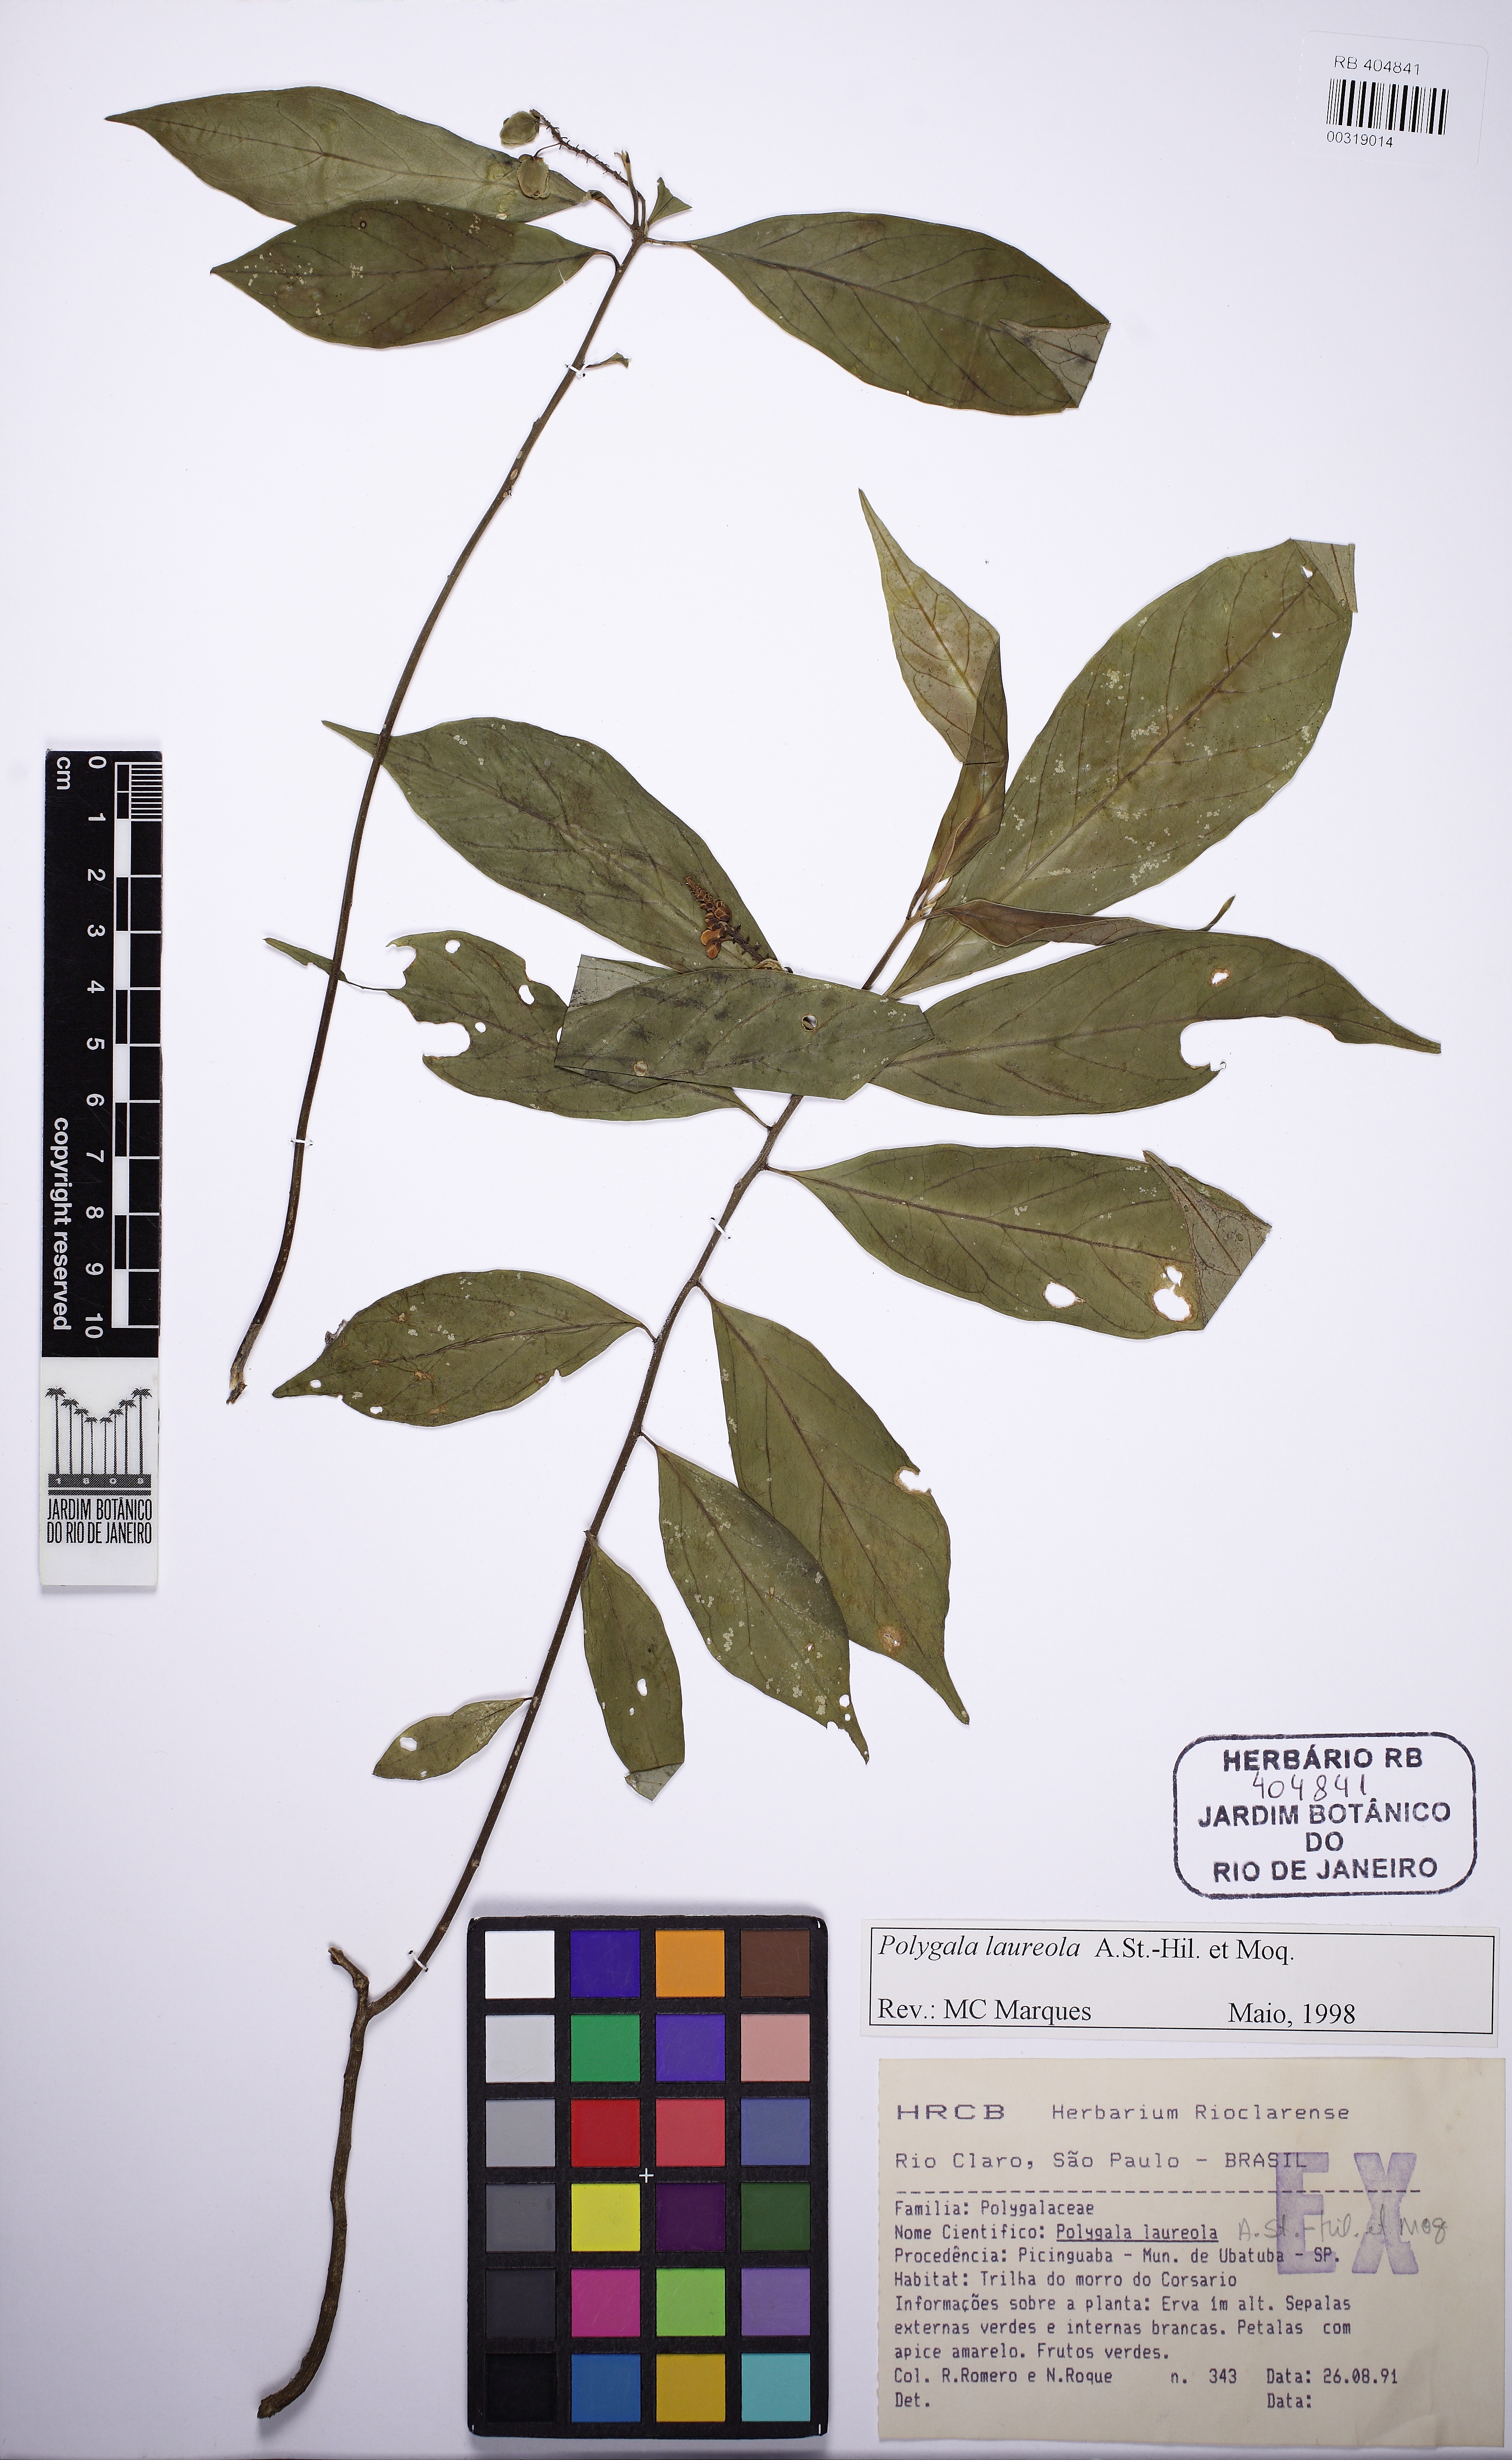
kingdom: Plantae
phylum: Tracheophyta
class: Magnoliopsida
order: Fabales
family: Polygalaceae
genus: Caamembeca
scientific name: Caamembeca salicifolia
